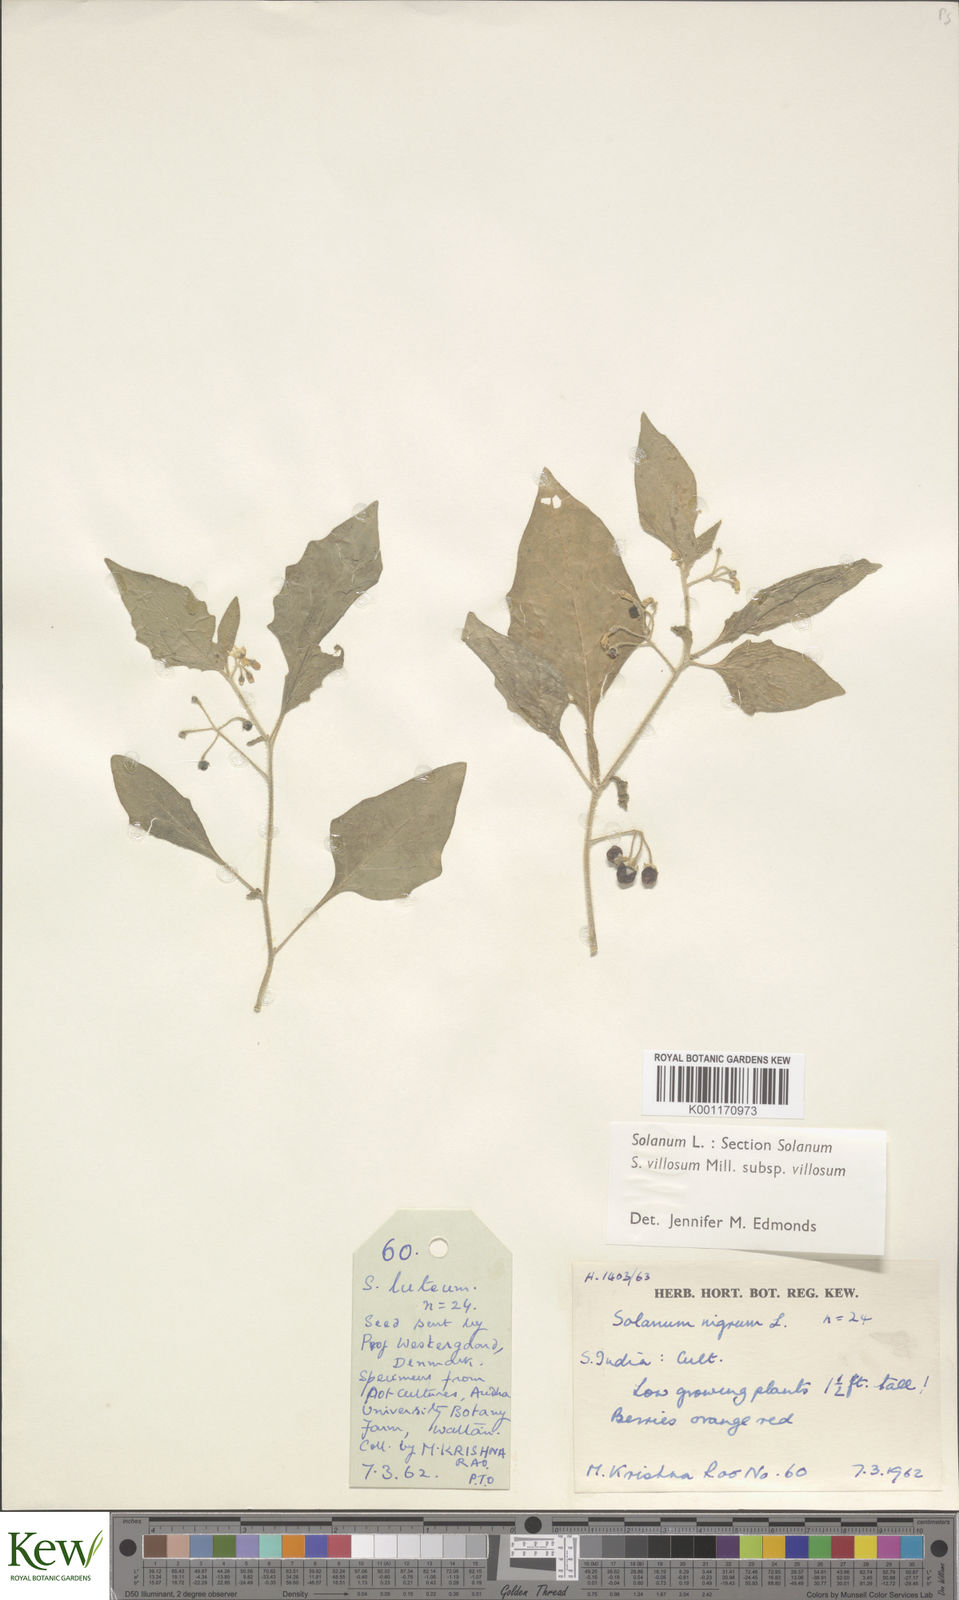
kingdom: Plantae
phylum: Tracheophyta
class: Magnoliopsida
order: Solanales
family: Solanaceae
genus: Solanum
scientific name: Solanum villosum
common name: Red nightshade
